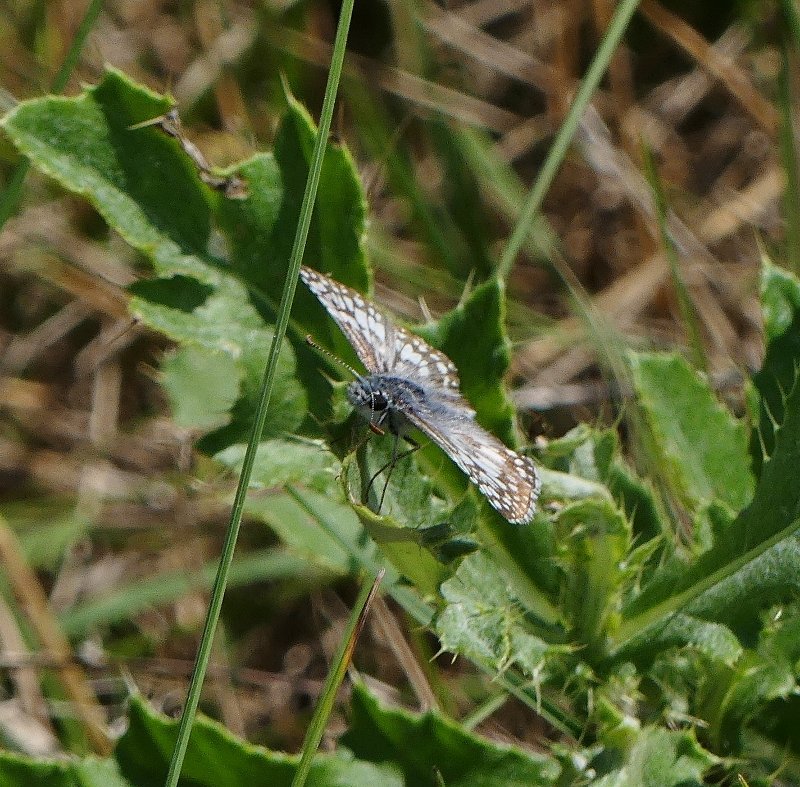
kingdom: Animalia
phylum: Arthropoda
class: Insecta
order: Lepidoptera
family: Hesperiidae
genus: Pyrgus
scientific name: Pyrgus communis
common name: Common Checkered-Skipper
